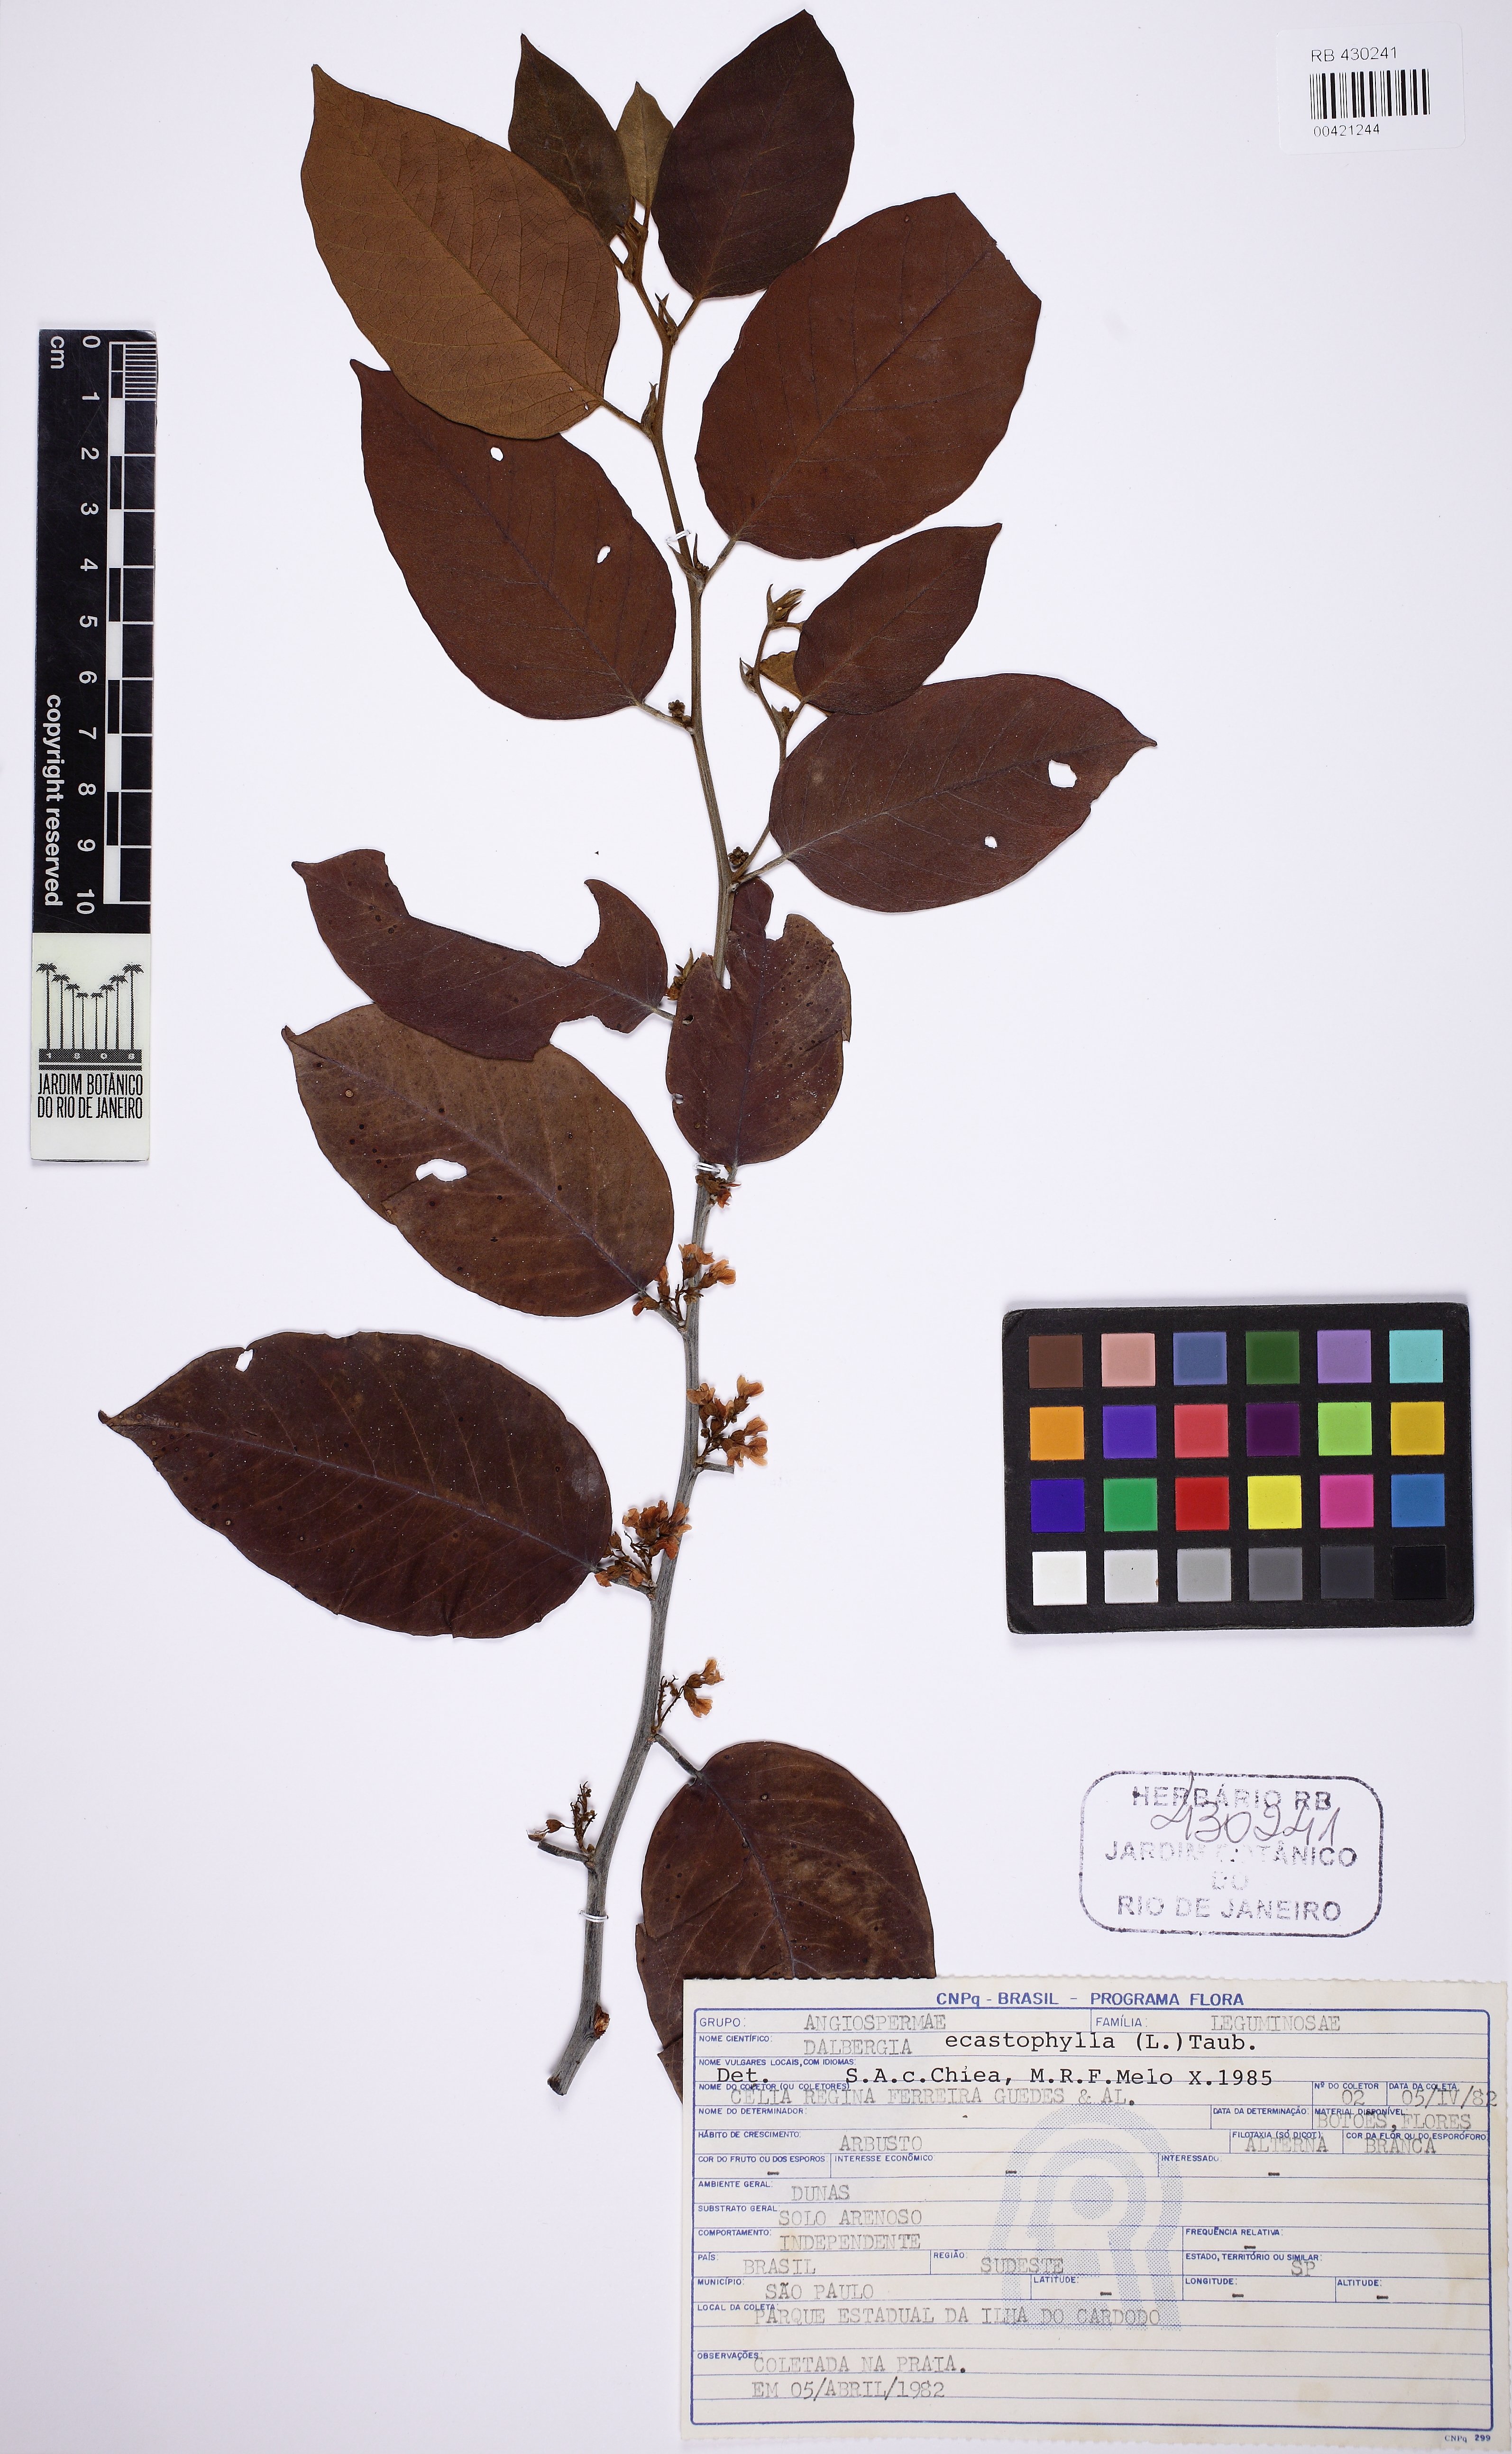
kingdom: Plantae
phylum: Tracheophyta
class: Magnoliopsida
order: Fabales
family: Fabaceae
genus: Dalbergia
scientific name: Dalbergia ecastaphyllum
